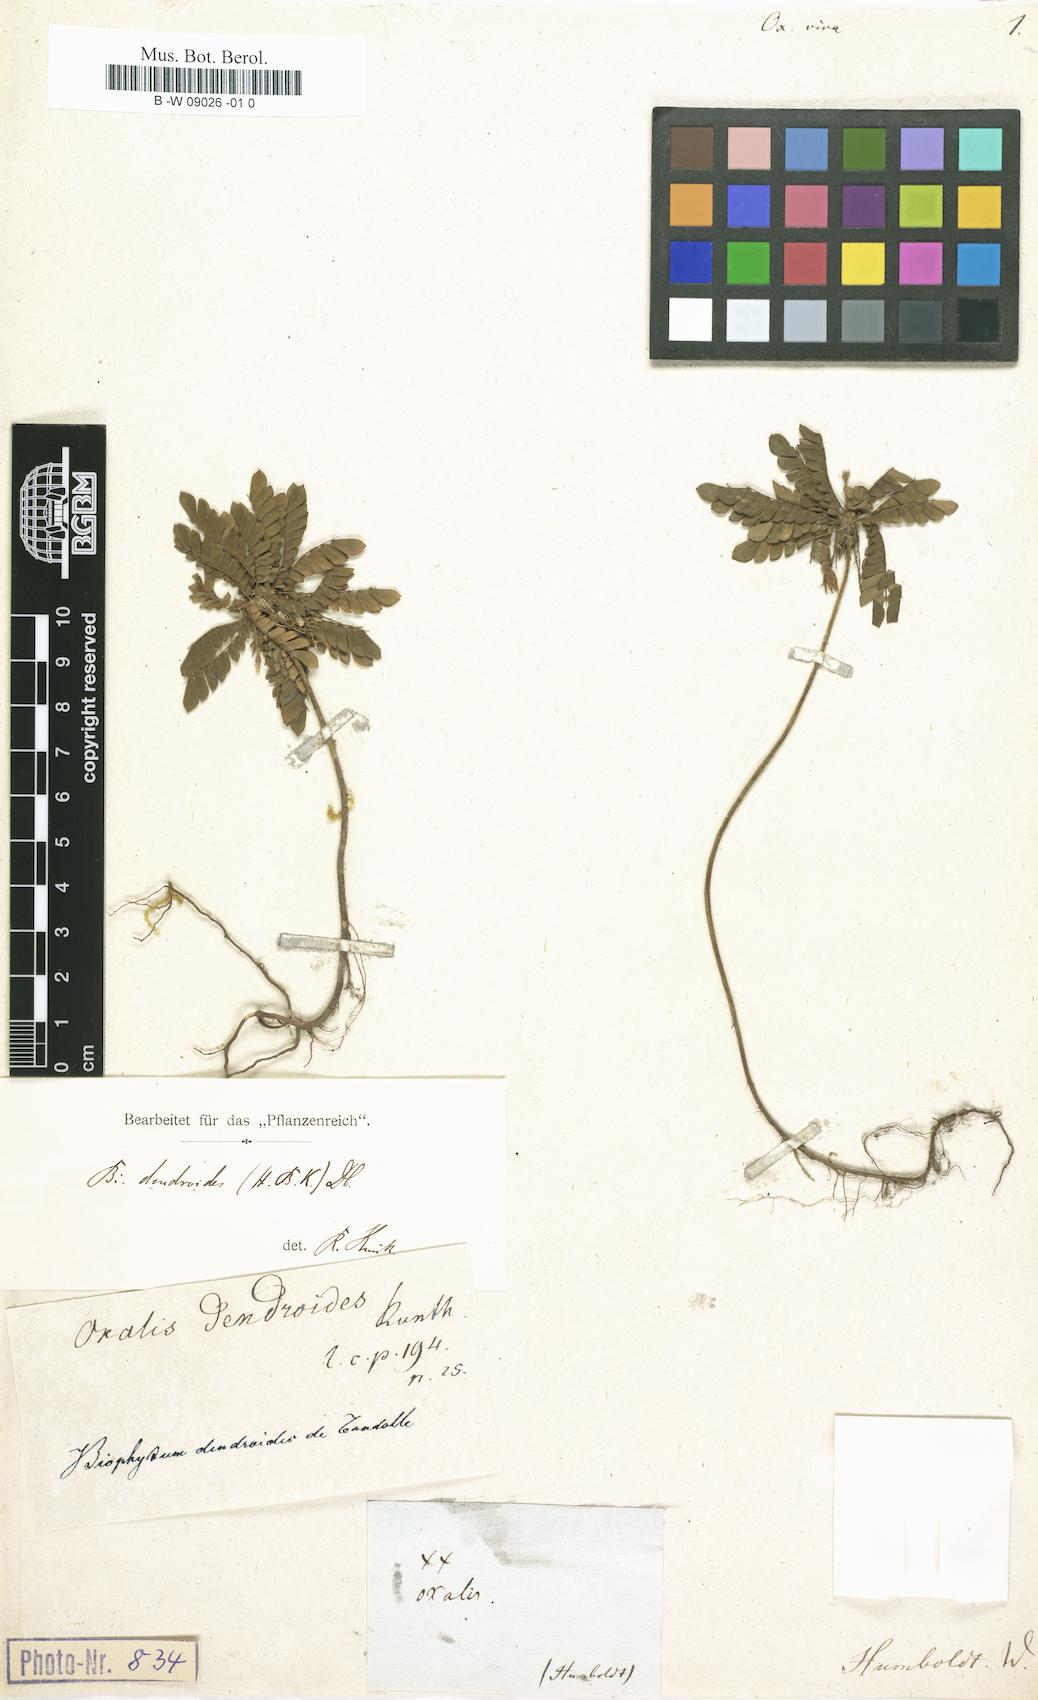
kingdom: Plantae
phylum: Tracheophyta
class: Magnoliopsida
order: Oxalidales
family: Oxalidaceae
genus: Biophytum
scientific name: Biophytum dendroides
